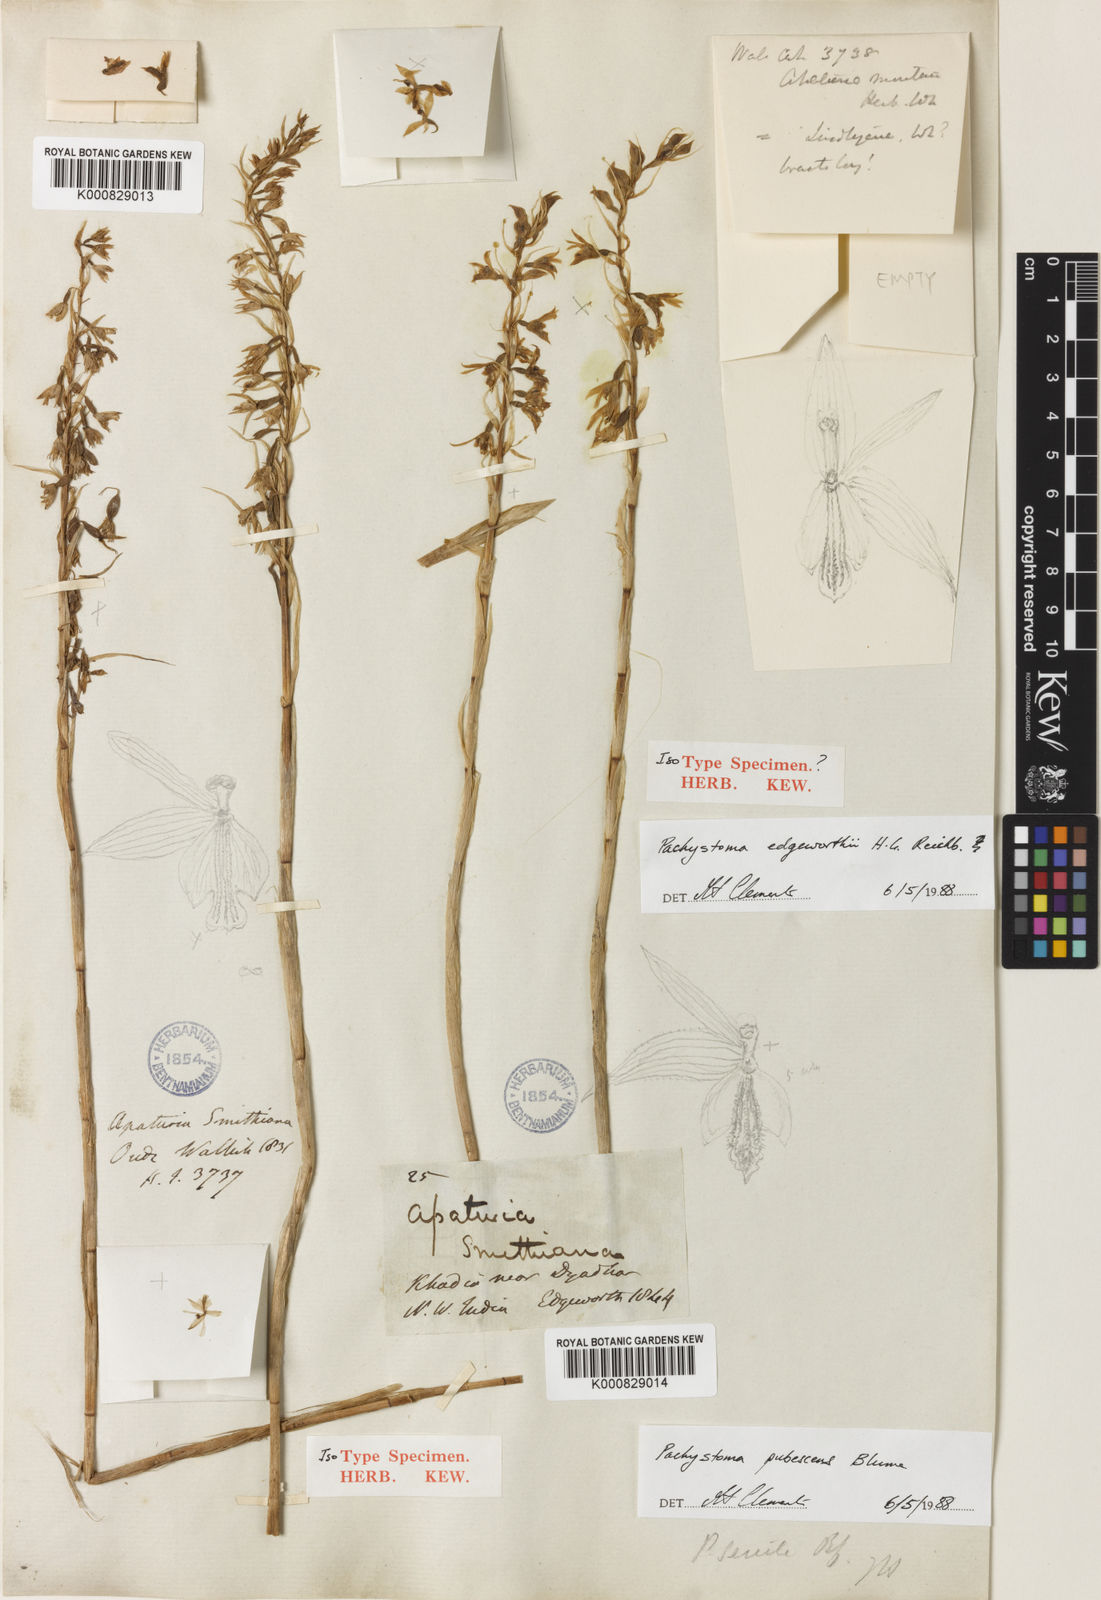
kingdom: Plantae
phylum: Tracheophyta
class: Liliopsida
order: Asparagales
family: Orchidaceae
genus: Pachystoma
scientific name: Pachystoma pubescens
